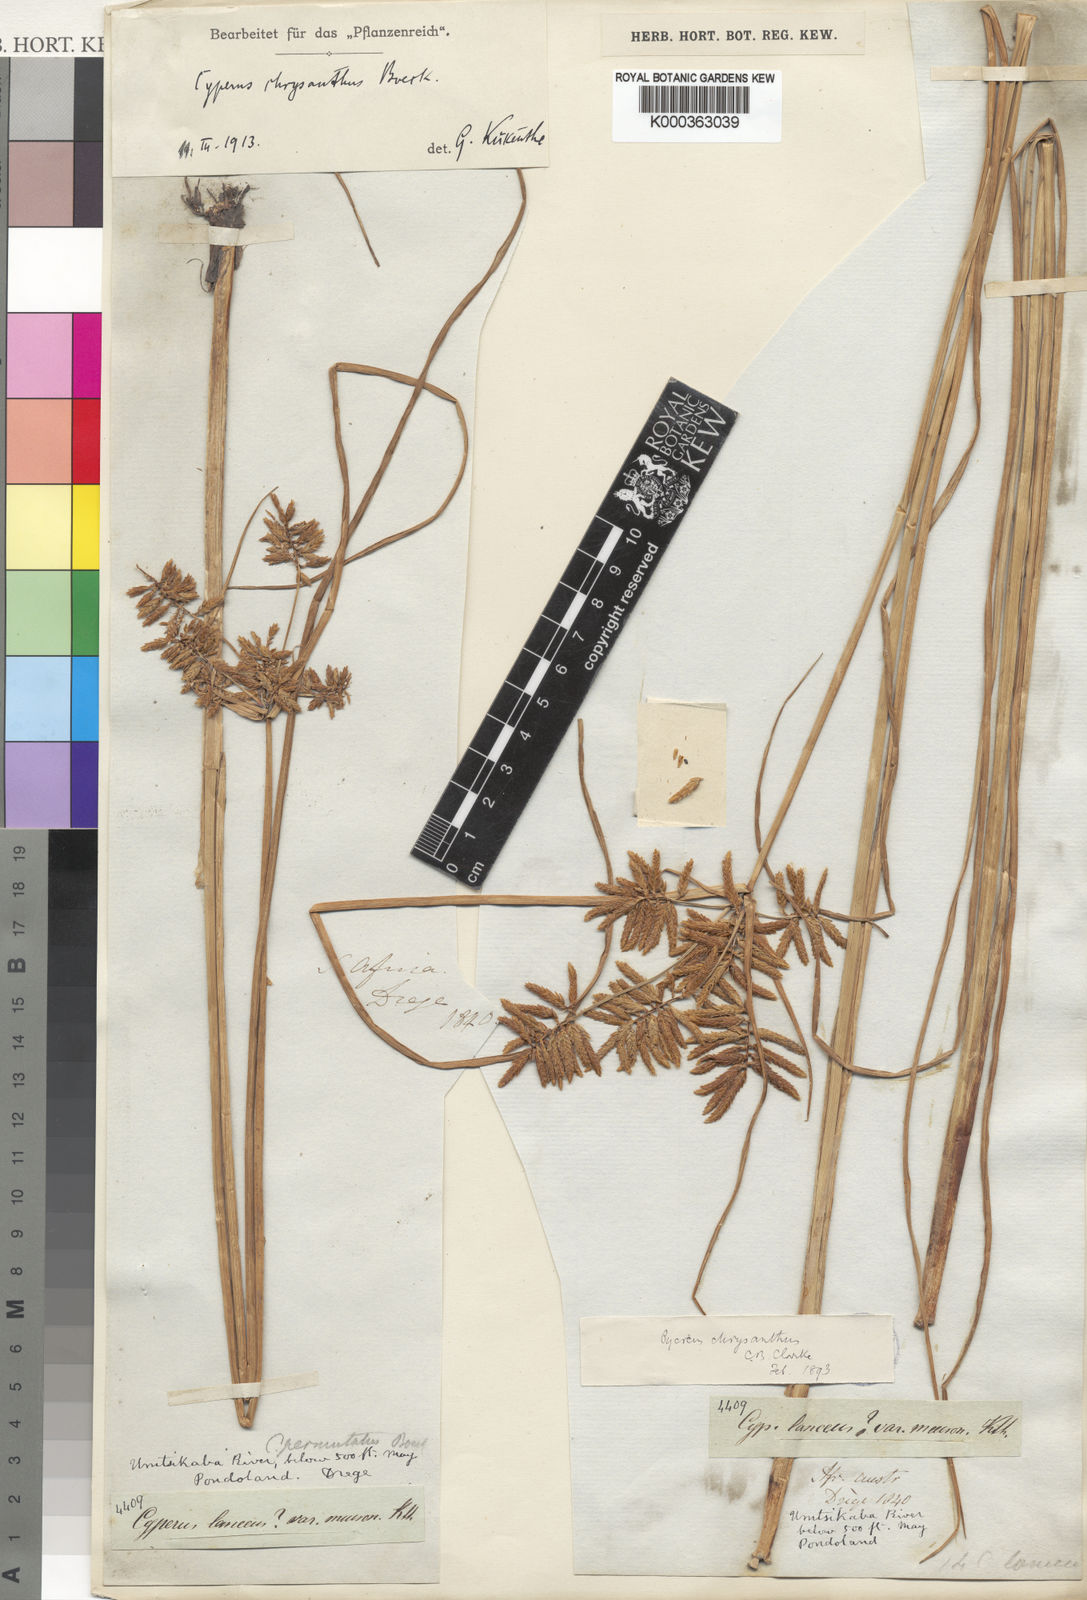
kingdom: Plantae
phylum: Tracheophyta
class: Liliopsida
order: Poales
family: Cyperaceae
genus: Cyperus
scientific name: Cyperus chrysanthus
